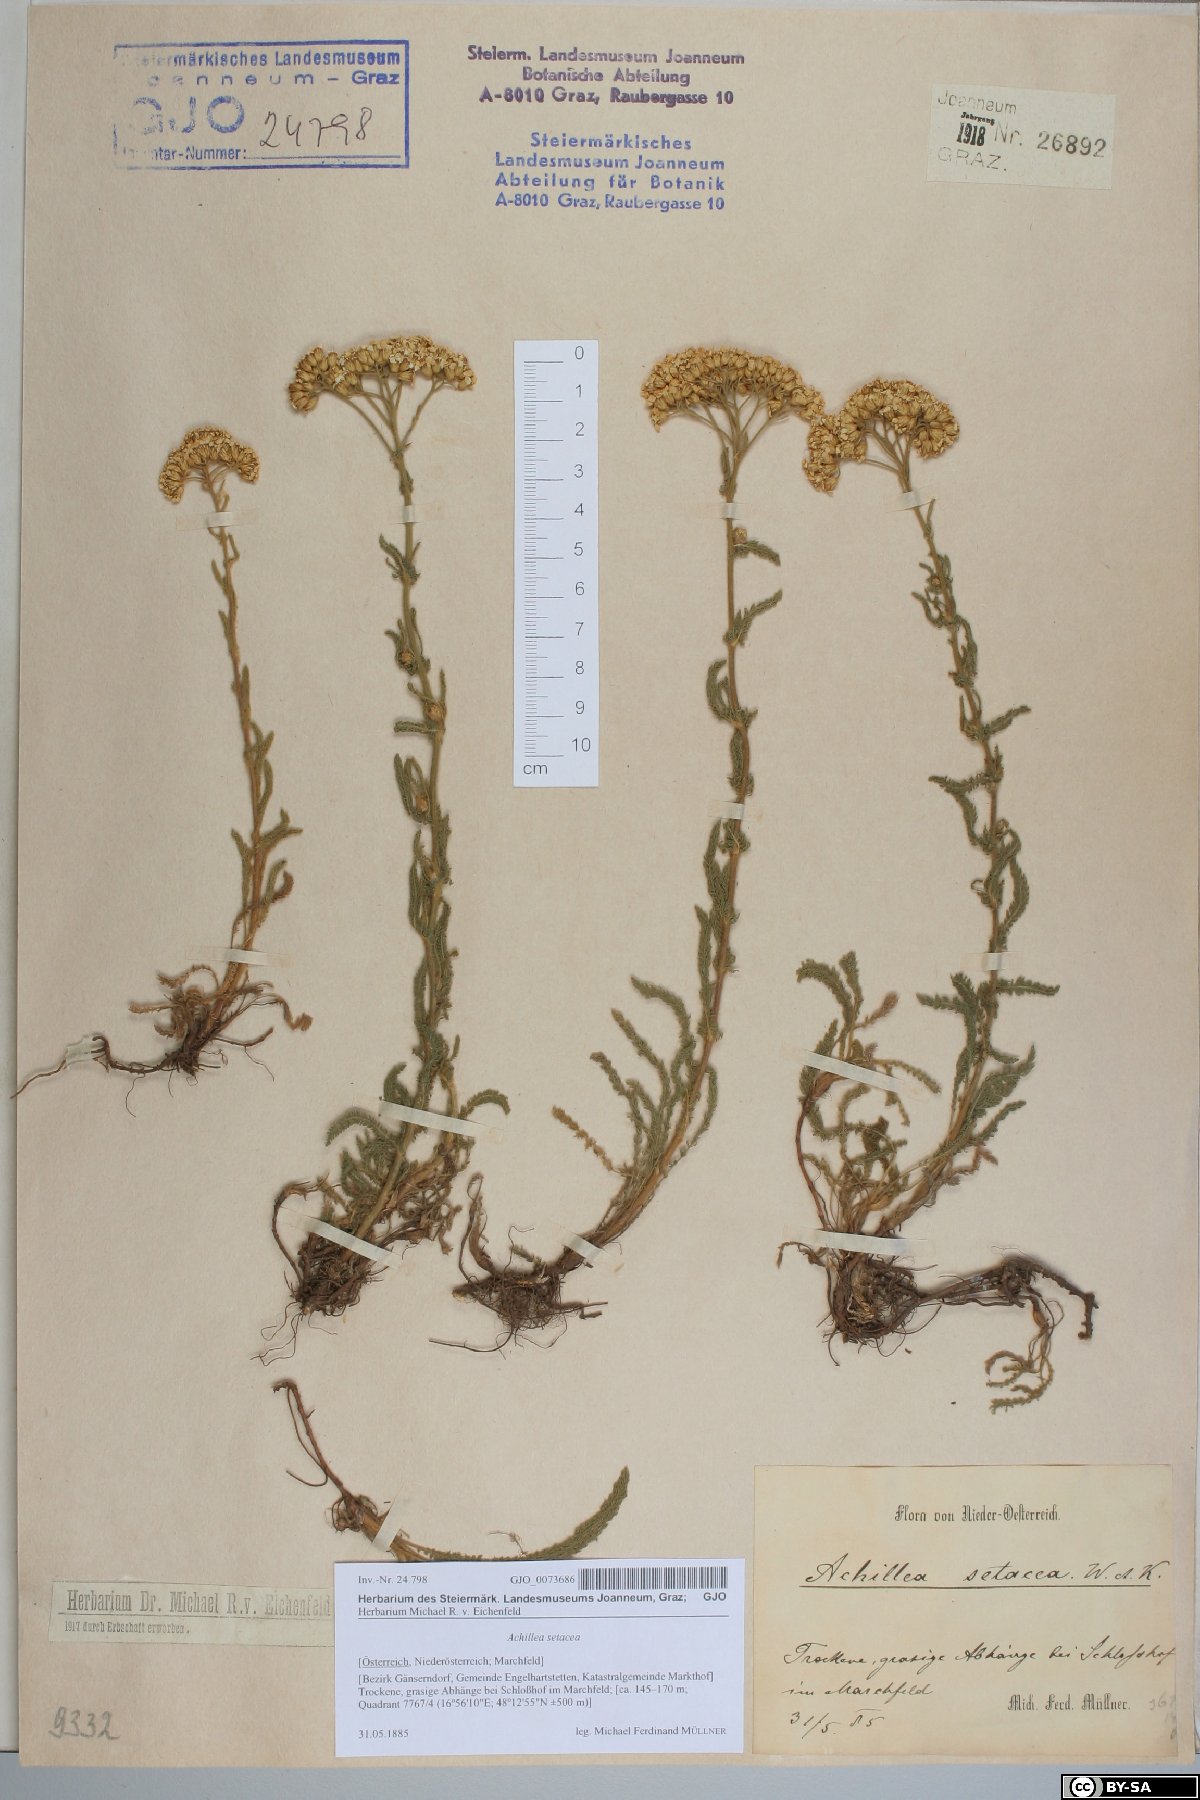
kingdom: Plantae
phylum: Tracheophyta
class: Magnoliopsida
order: Asterales
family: Asteraceae
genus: Achillea
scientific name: Achillea setacea
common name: Bristly yarrow
